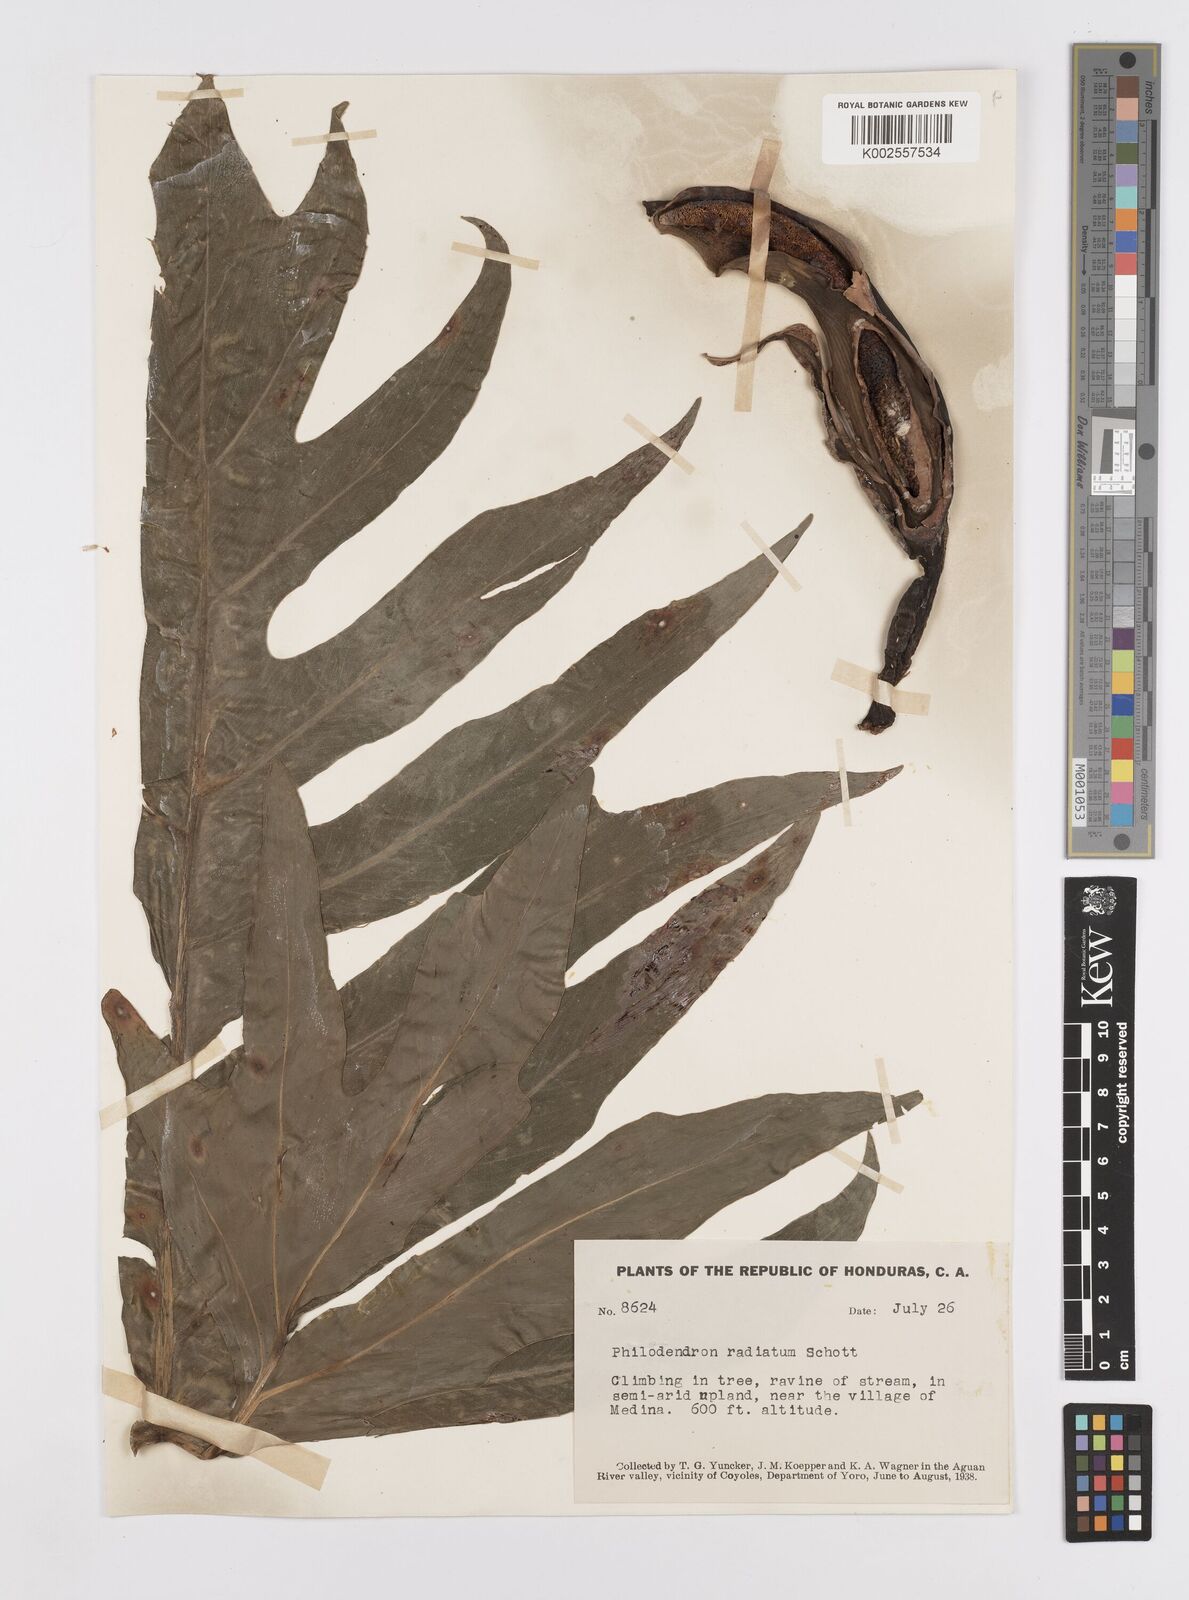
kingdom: Plantae
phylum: Tracheophyta
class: Liliopsida
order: Alismatales
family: Araceae
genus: Philodendron
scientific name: Philodendron radiatum
